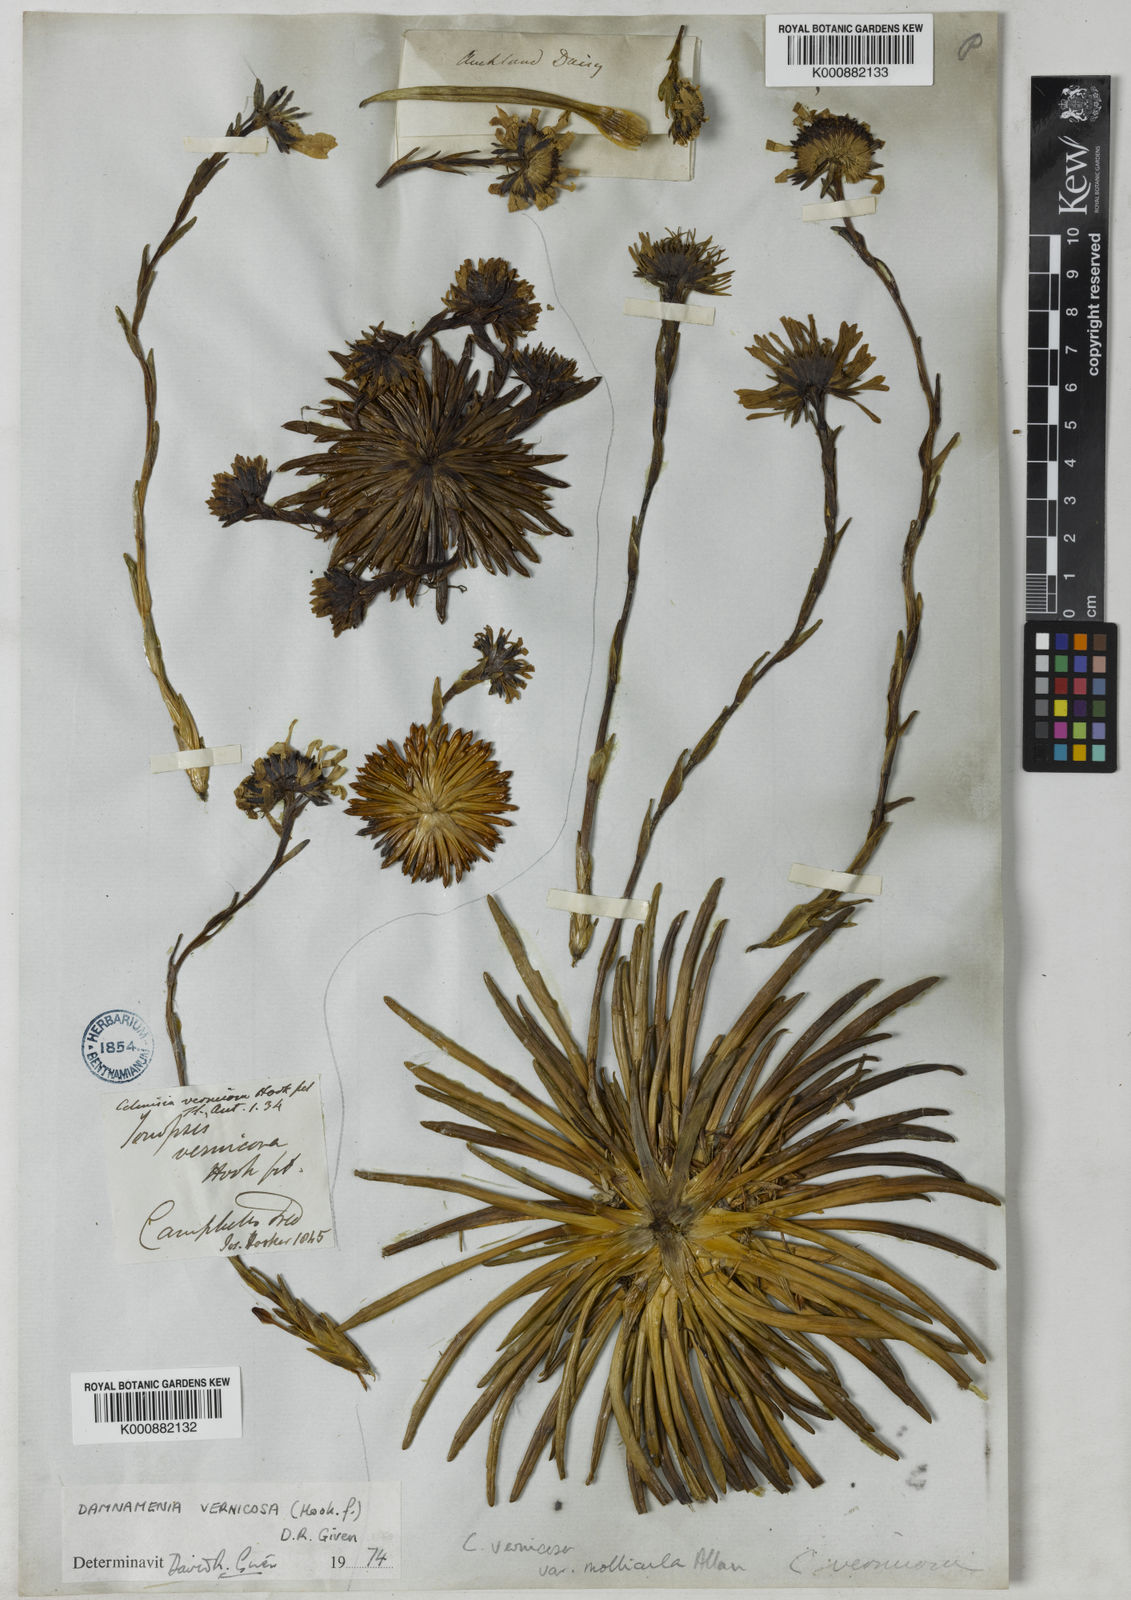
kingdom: Plantae
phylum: Tracheophyta
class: Magnoliopsida
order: Asterales
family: Asteraceae
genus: Damnamenia
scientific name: Damnamenia vernicosa
